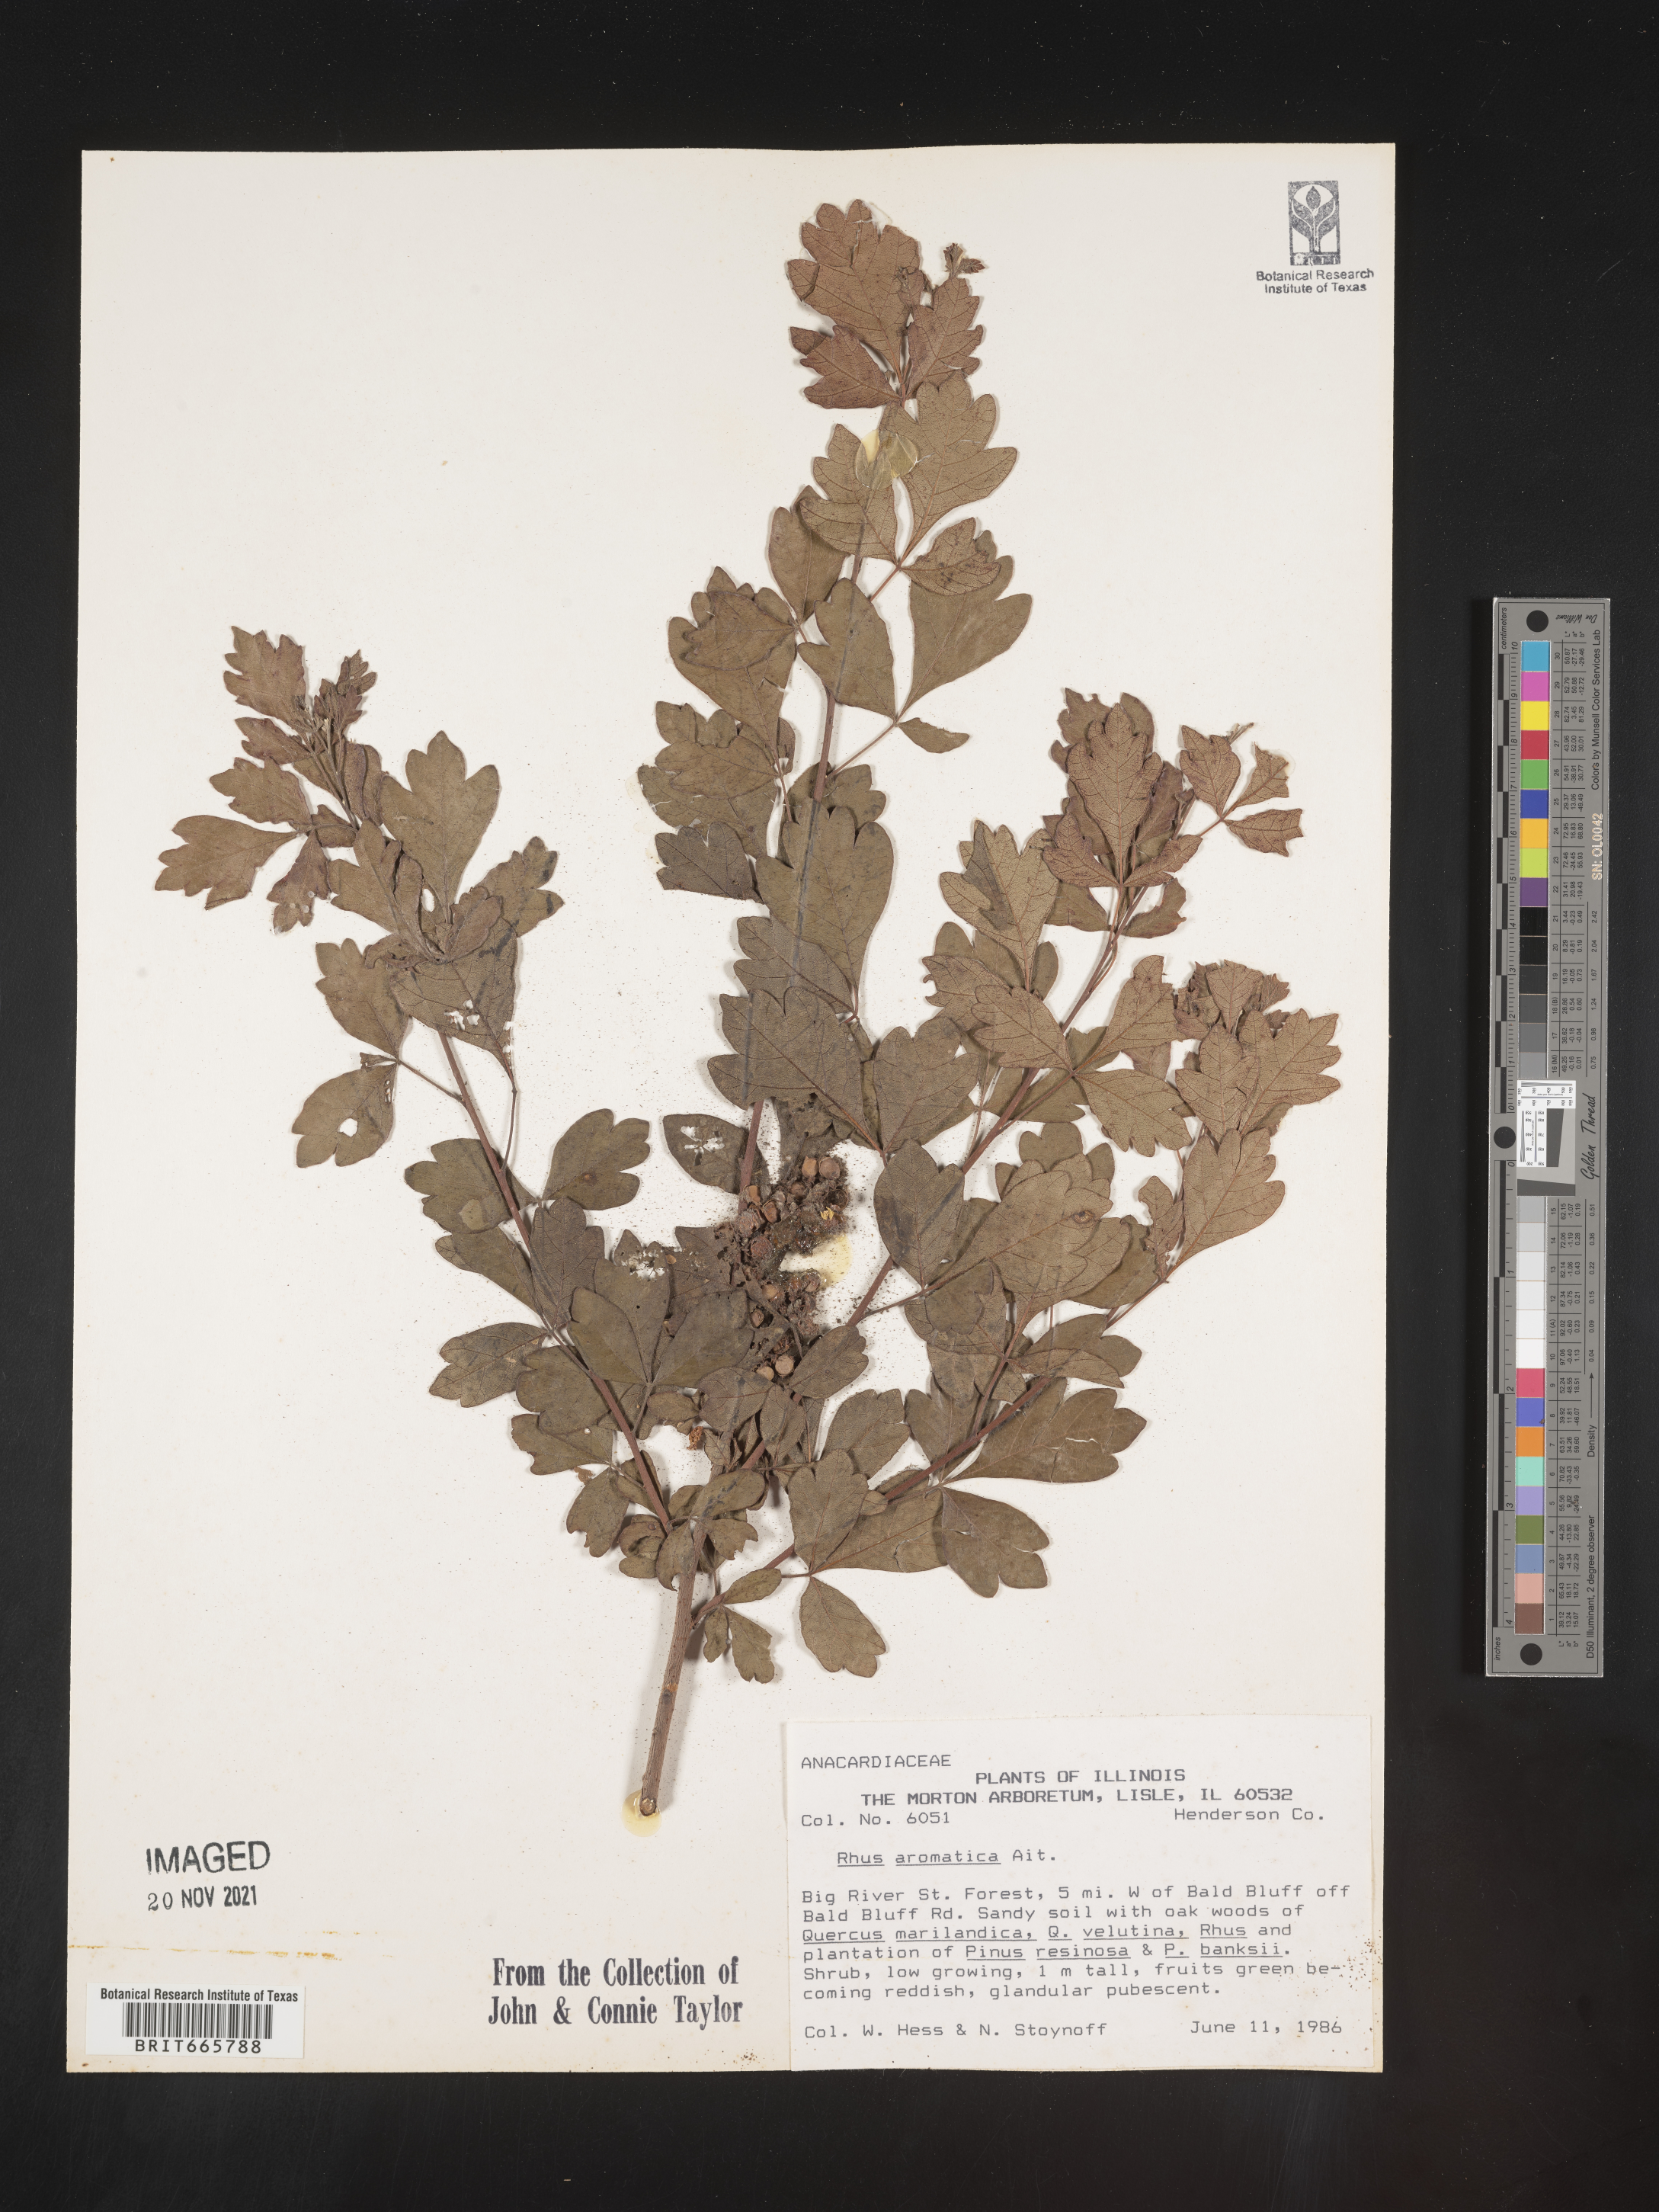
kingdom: Plantae
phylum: Tracheophyta
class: Magnoliopsida
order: Sapindales
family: Anacardiaceae
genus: Rhus
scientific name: Rhus aromatica
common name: Aromatic sumac
